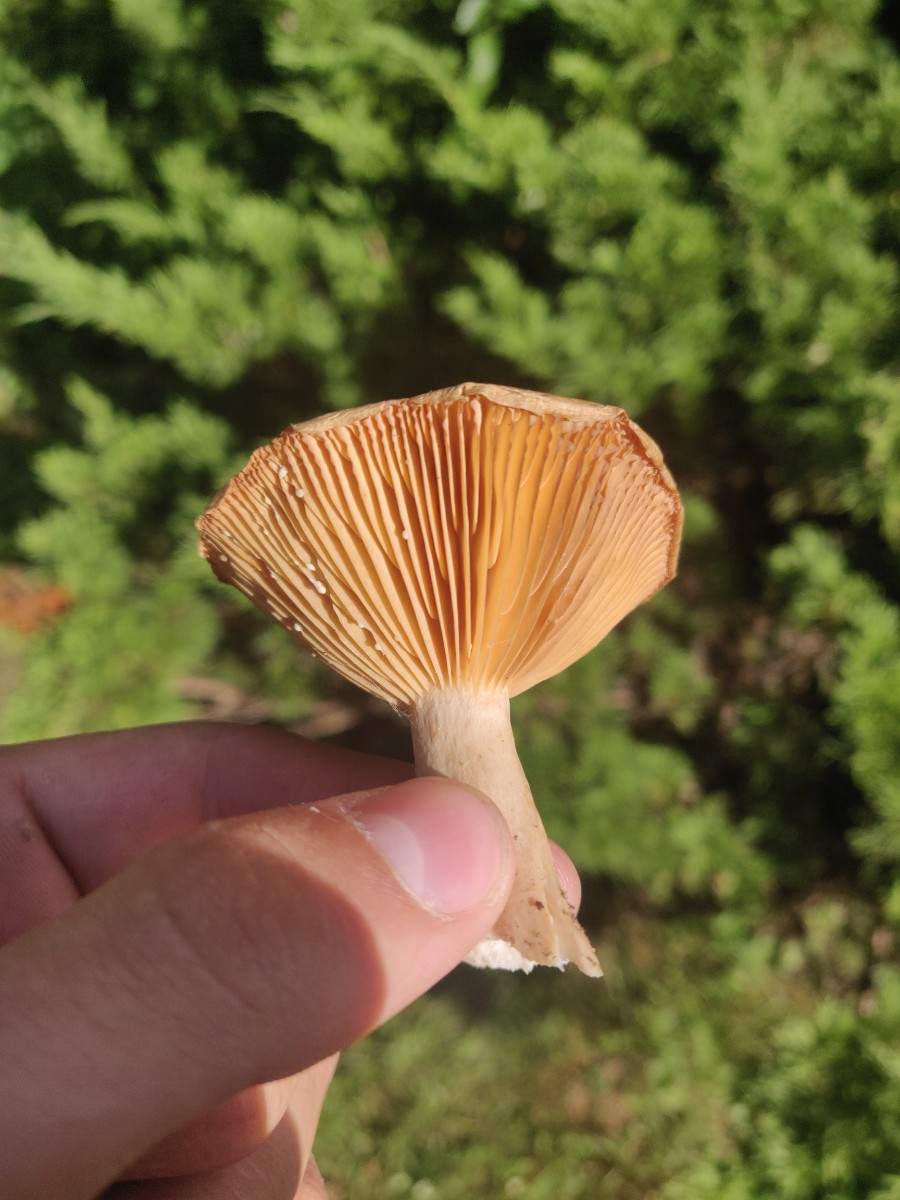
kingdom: Fungi
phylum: Basidiomycota
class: Agaricomycetes
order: Russulales
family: Russulaceae
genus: Lactarius
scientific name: Lactarius
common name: mælkehat
